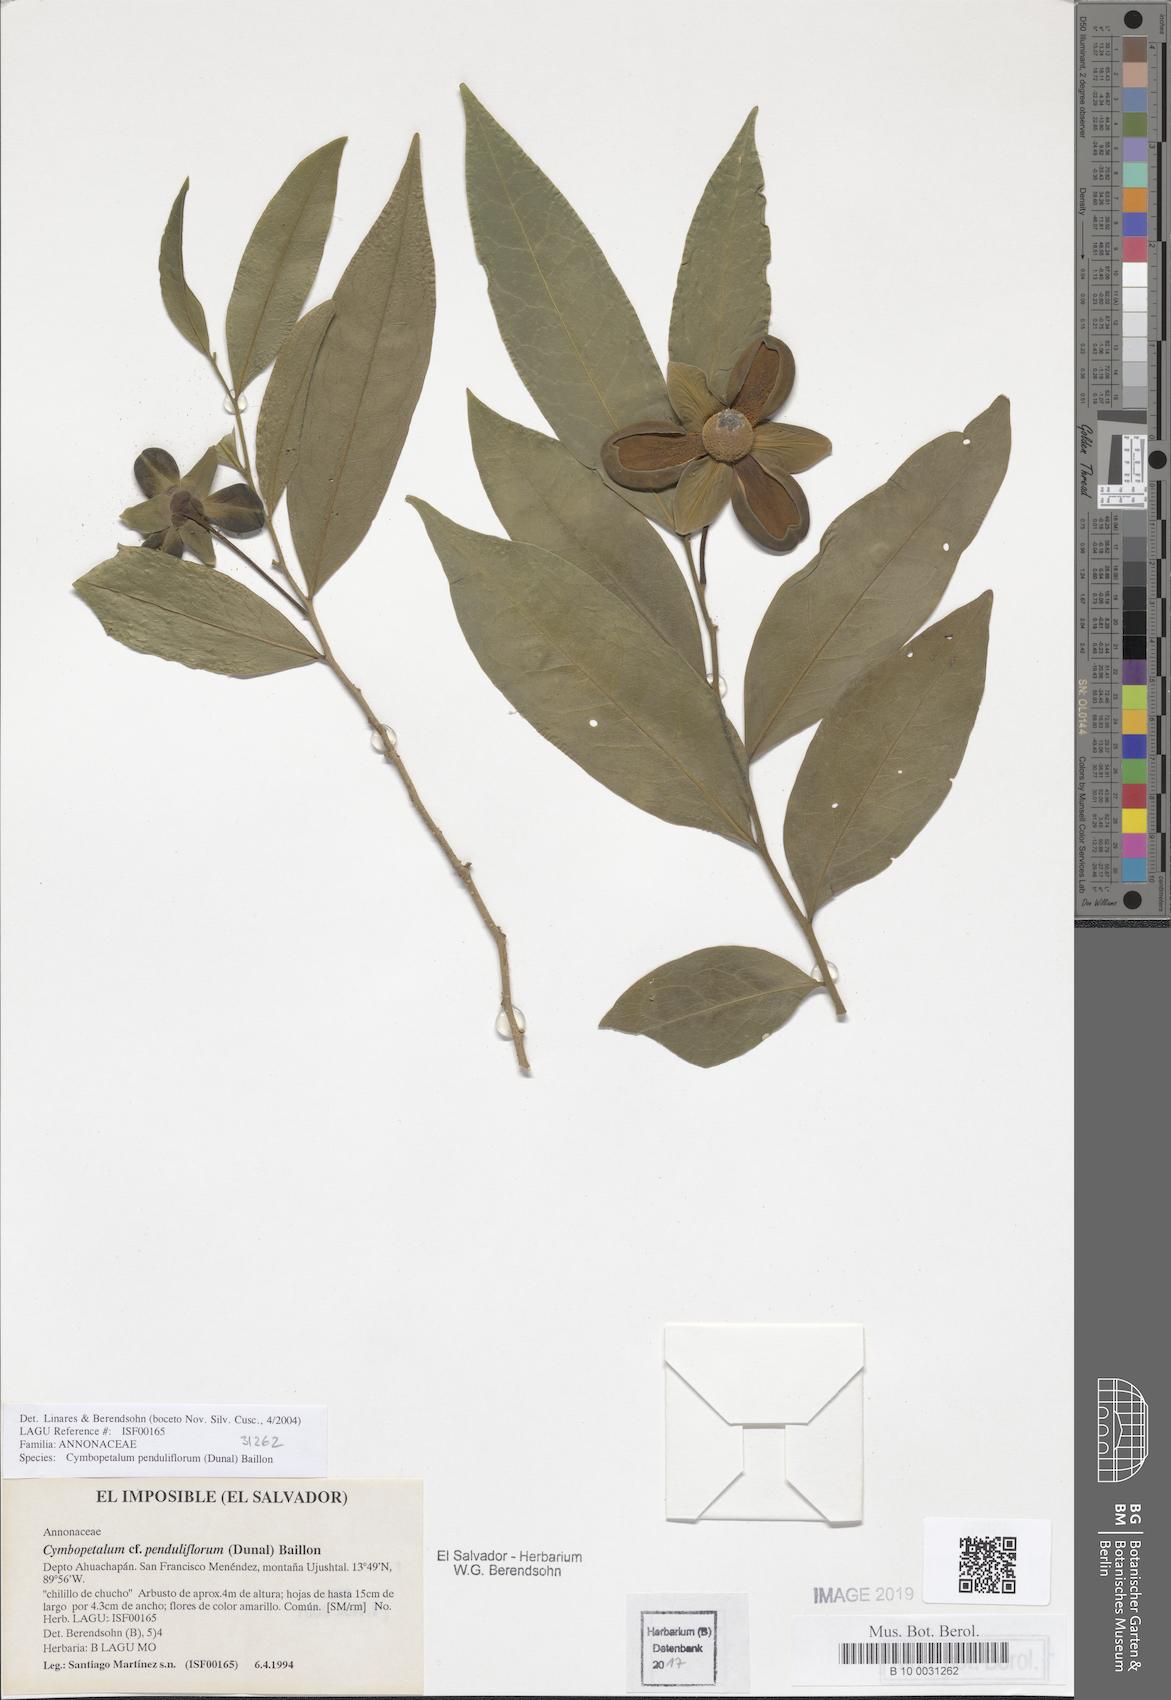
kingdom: Plantae
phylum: Tracheophyta
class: Magnoliopsida
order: Magnoliales
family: Annonaceae
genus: Cymbopetalum
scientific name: Cymbopetalum penduliflorum
